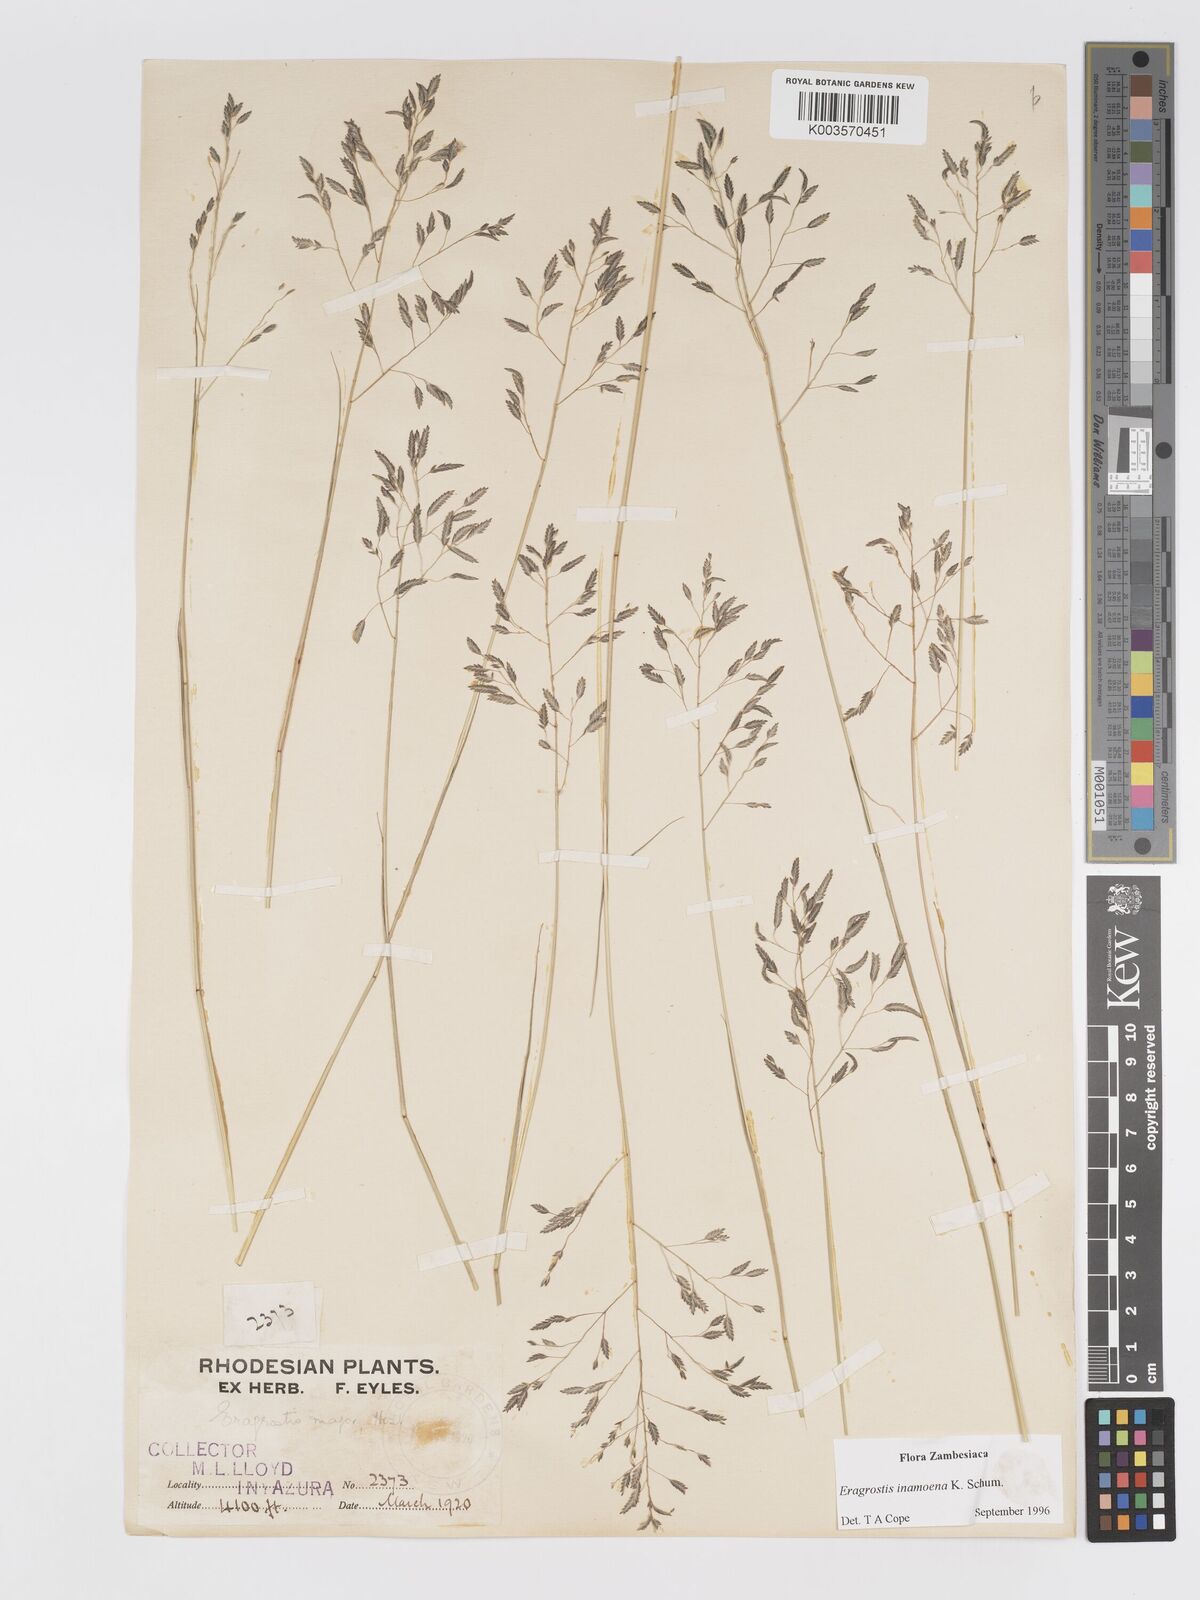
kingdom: Plantae
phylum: Tracheophyta
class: Liliopsida
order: Poales
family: Poaceae
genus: Eragrostis
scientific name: Eragrostis inamoena
